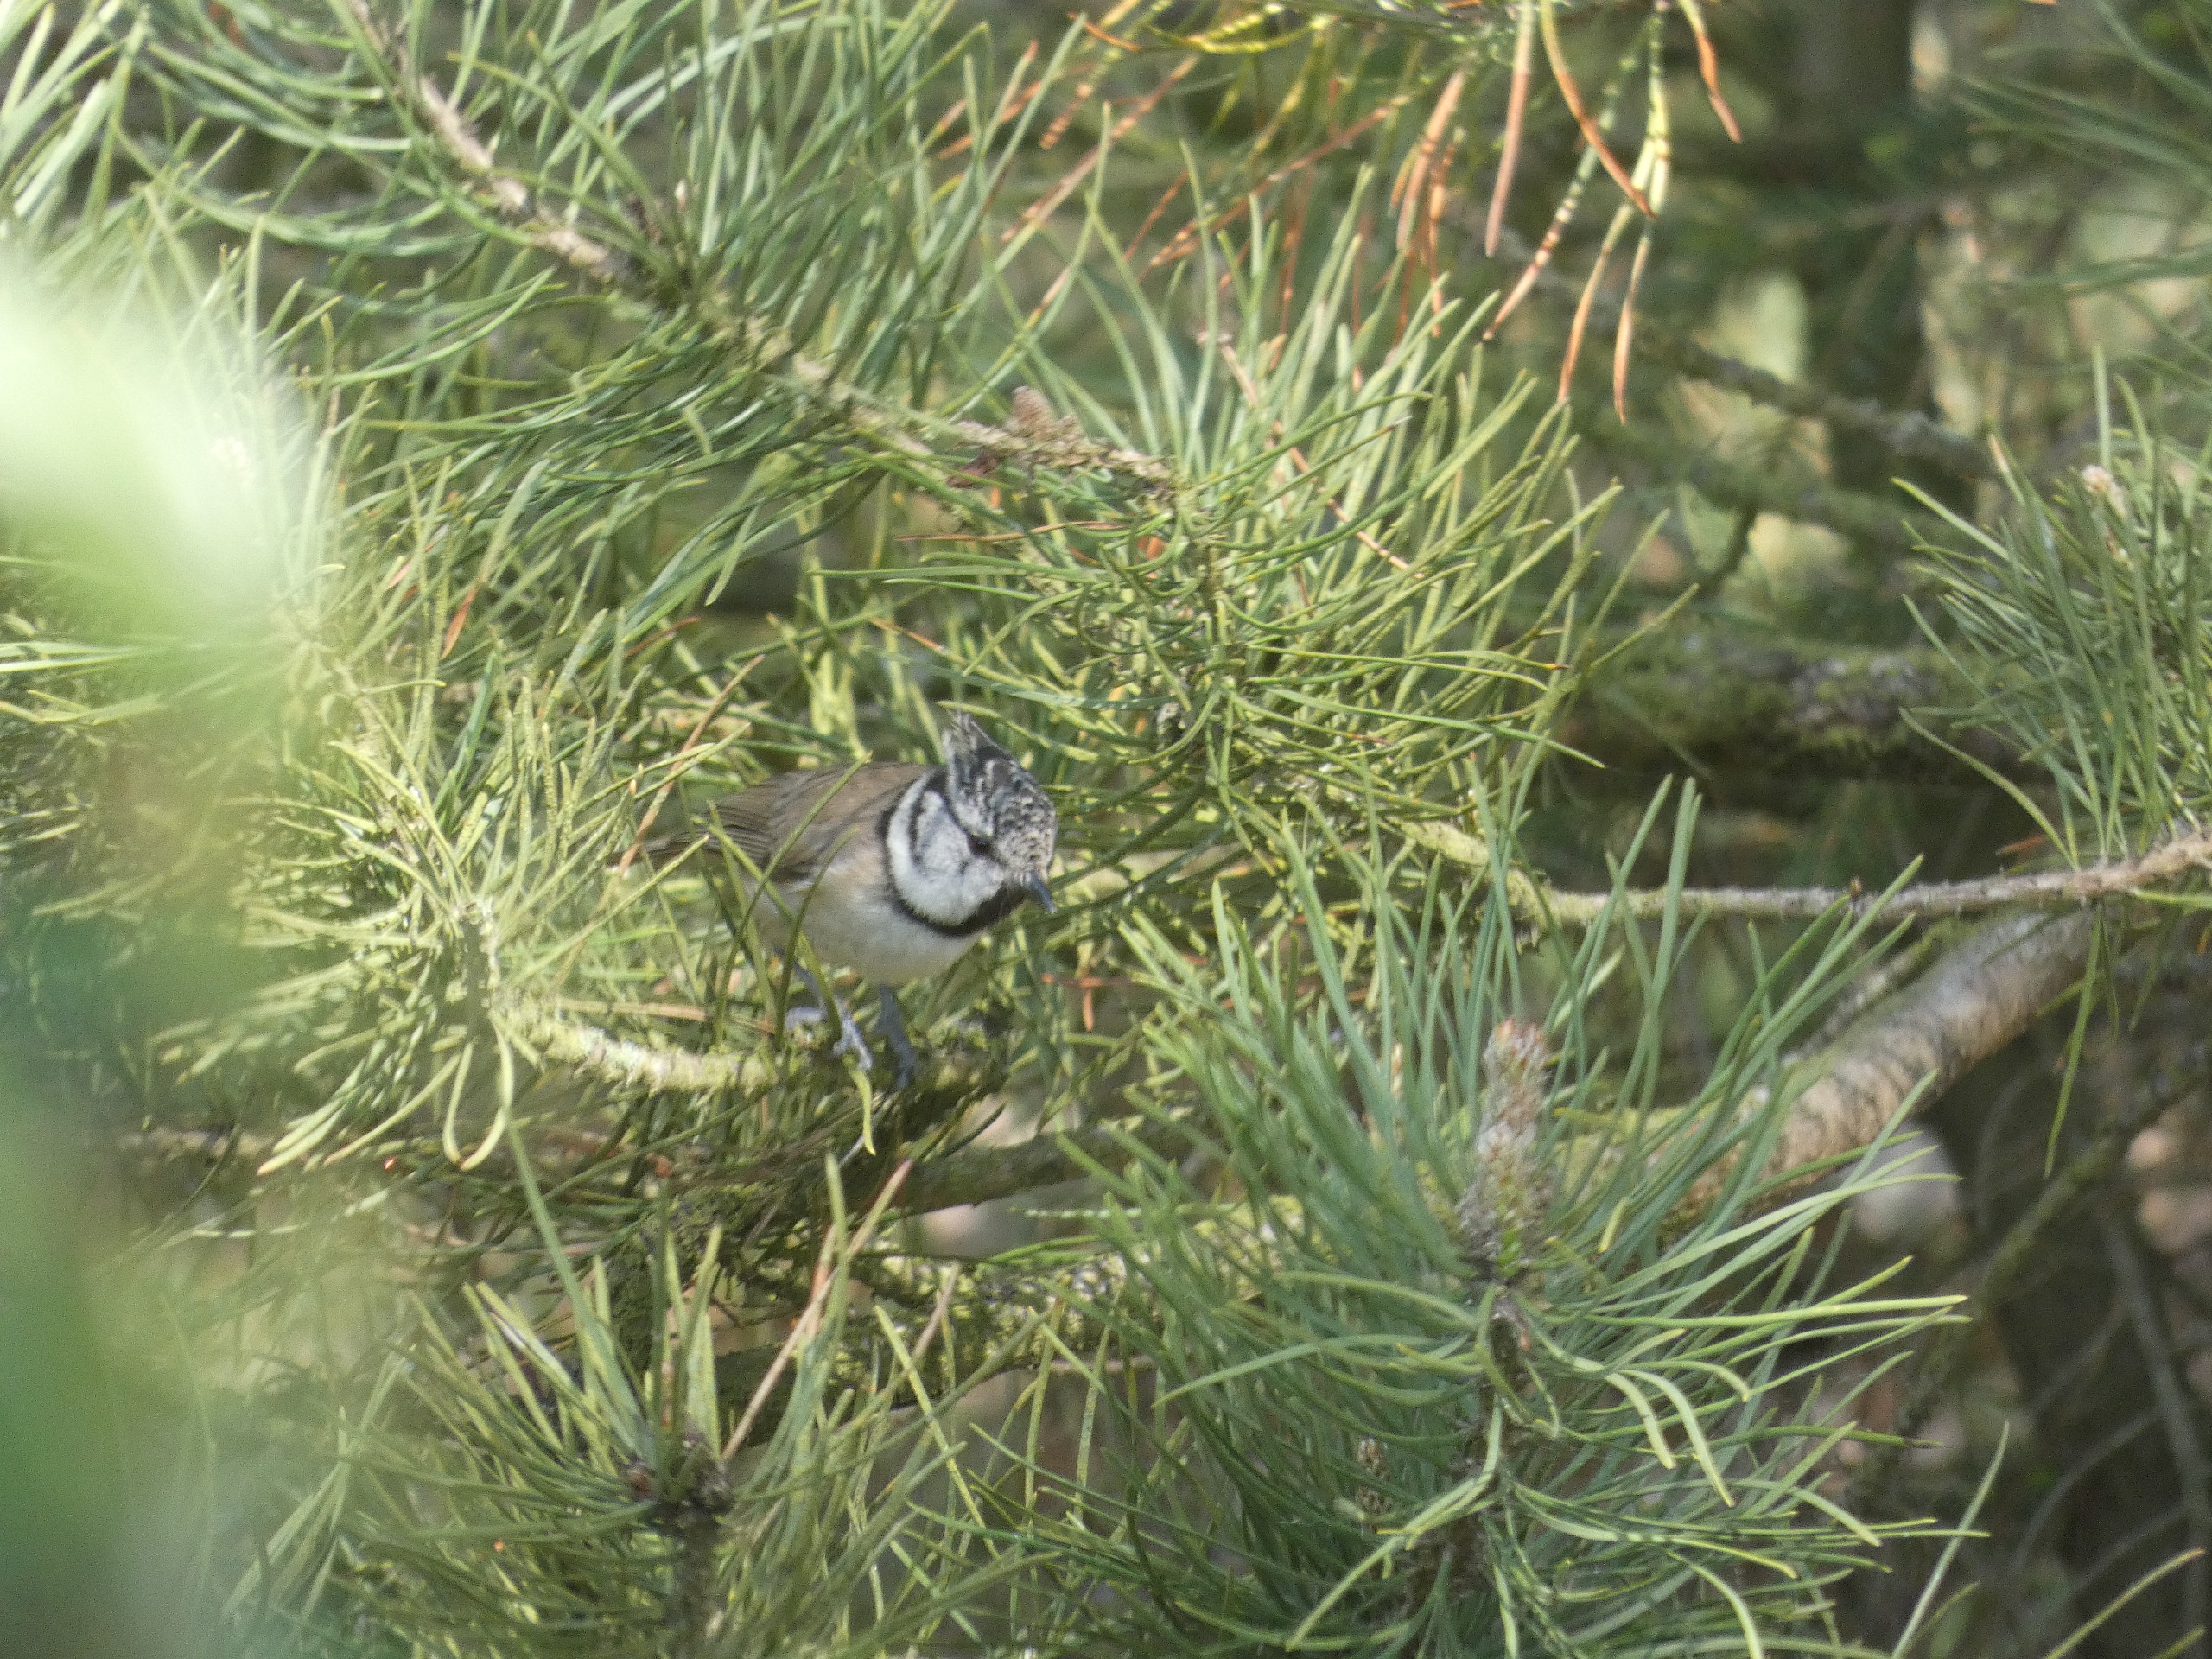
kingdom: Animalia
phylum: Chordata
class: Aves
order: Passeriformes
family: Paridae
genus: Lophophanes
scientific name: Lophophanes cristatus
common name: Topmejse
